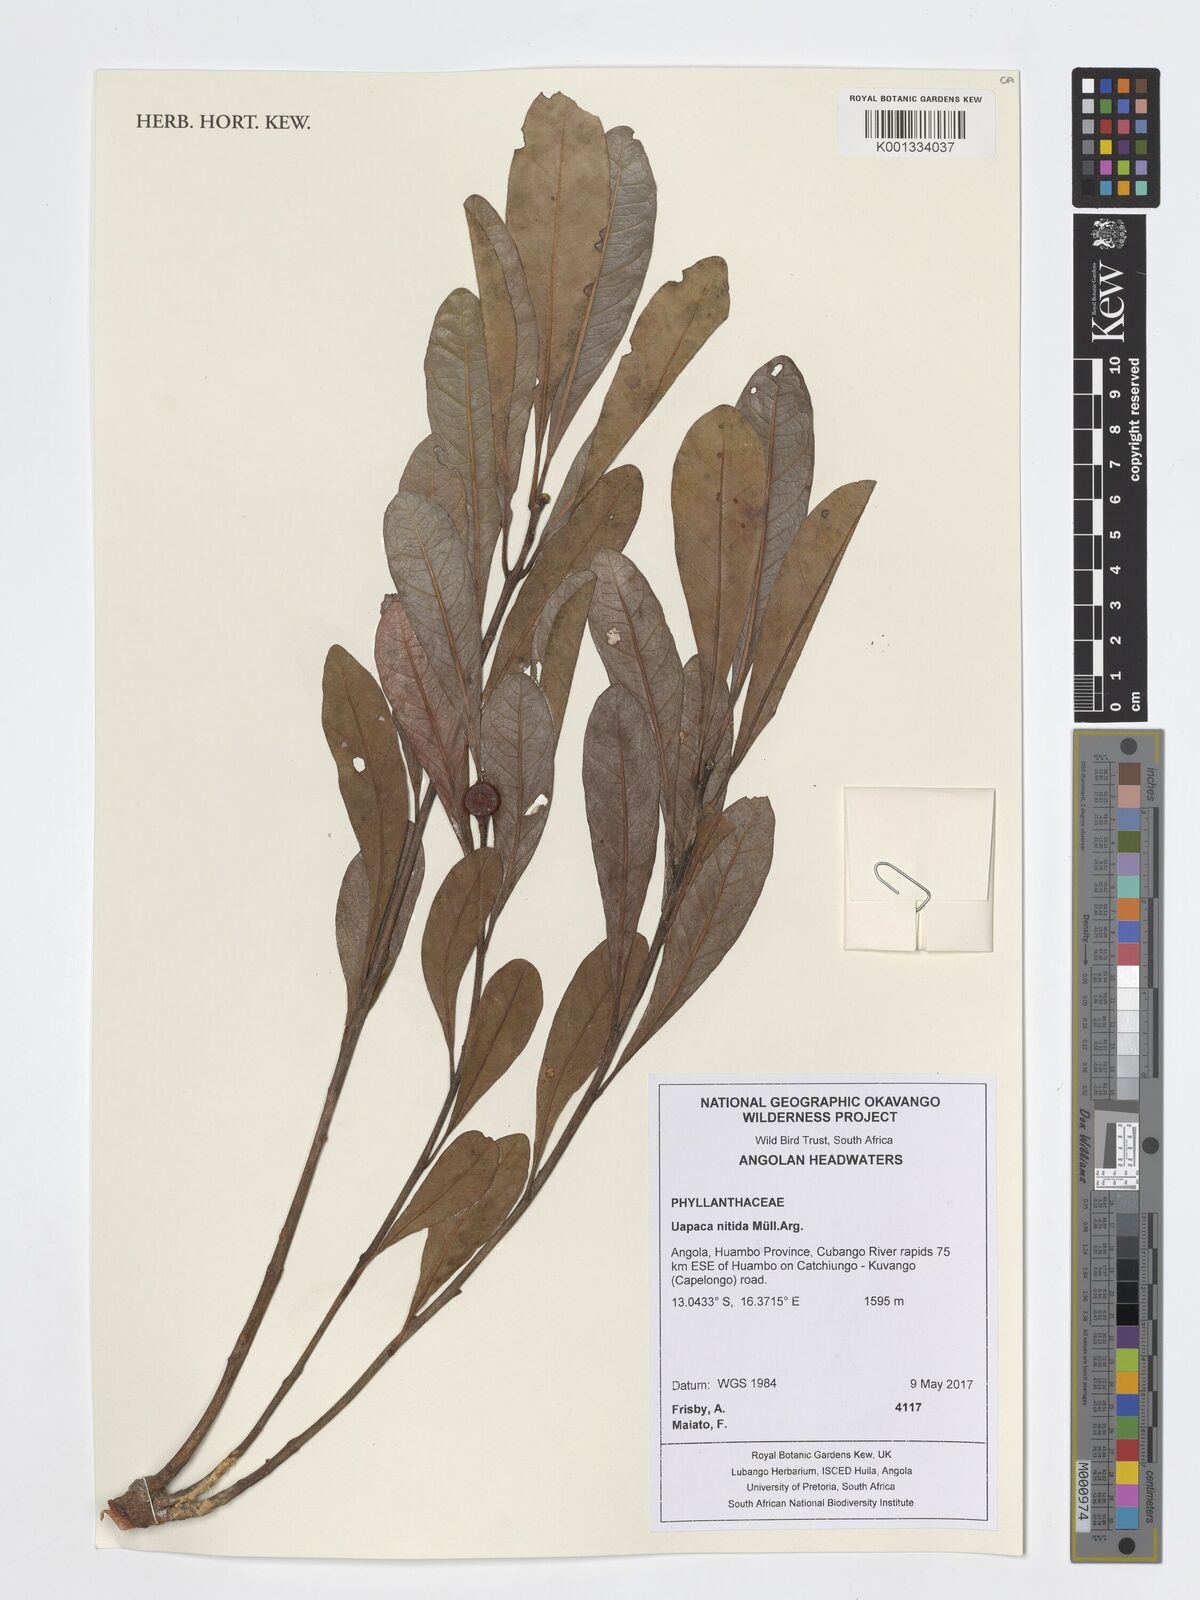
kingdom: Plantae
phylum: Tracheophyta
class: Magnoliopsida
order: Malpighiales
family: Phyllanthaceae
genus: Uapaca
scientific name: Uapaca nitida
